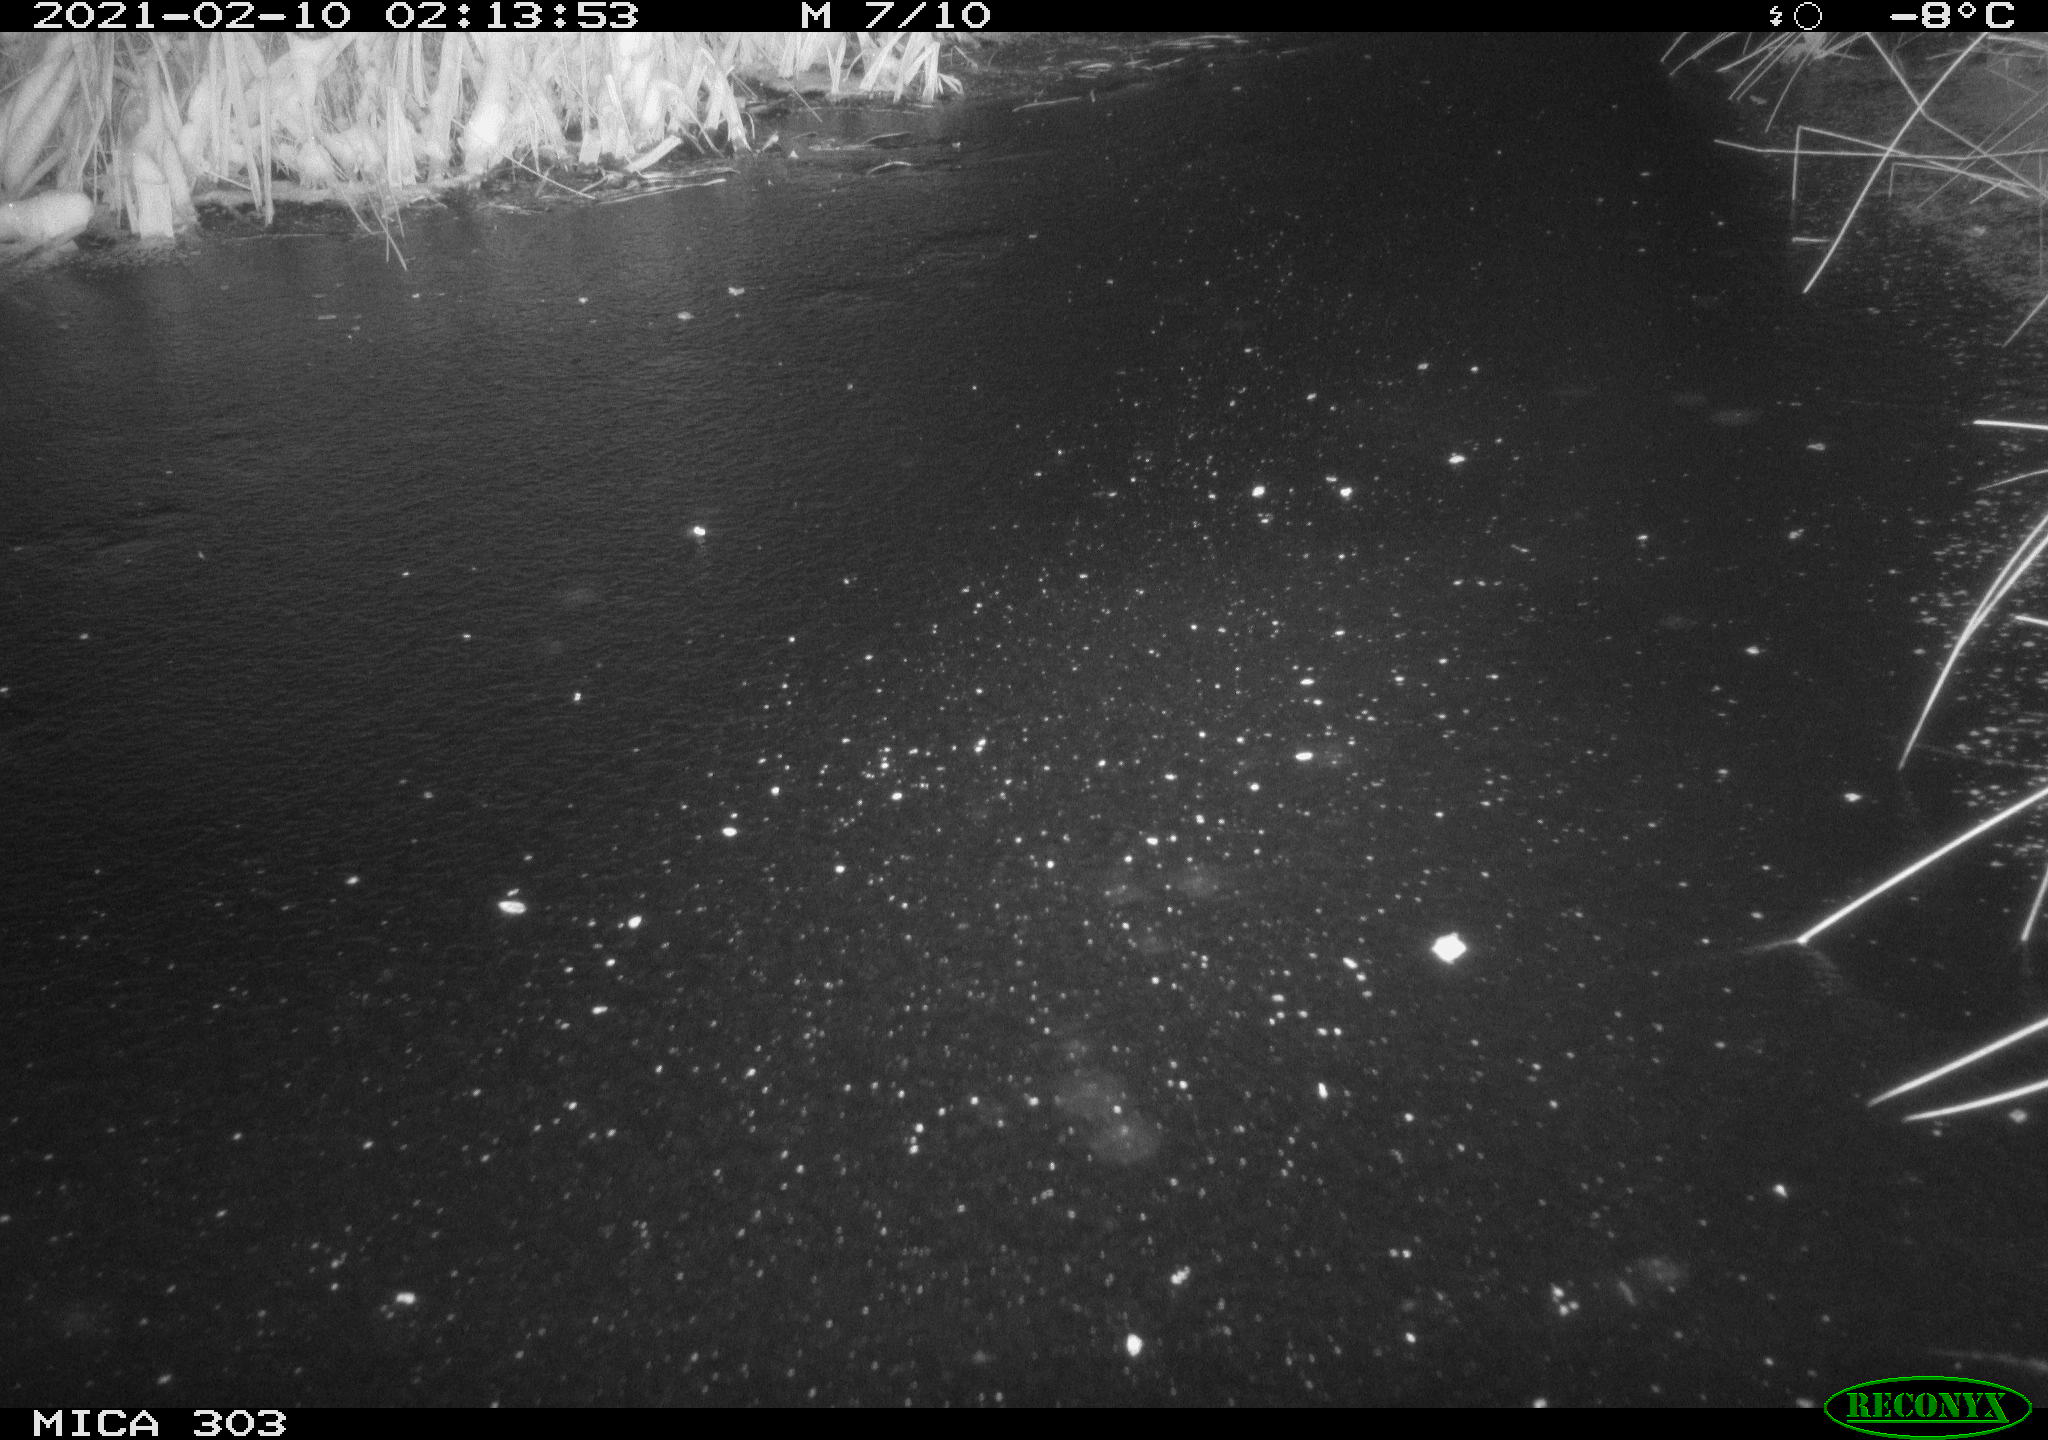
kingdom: Animalia
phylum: Chordata
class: Mammalia
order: Rodentia
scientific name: Rodentia
